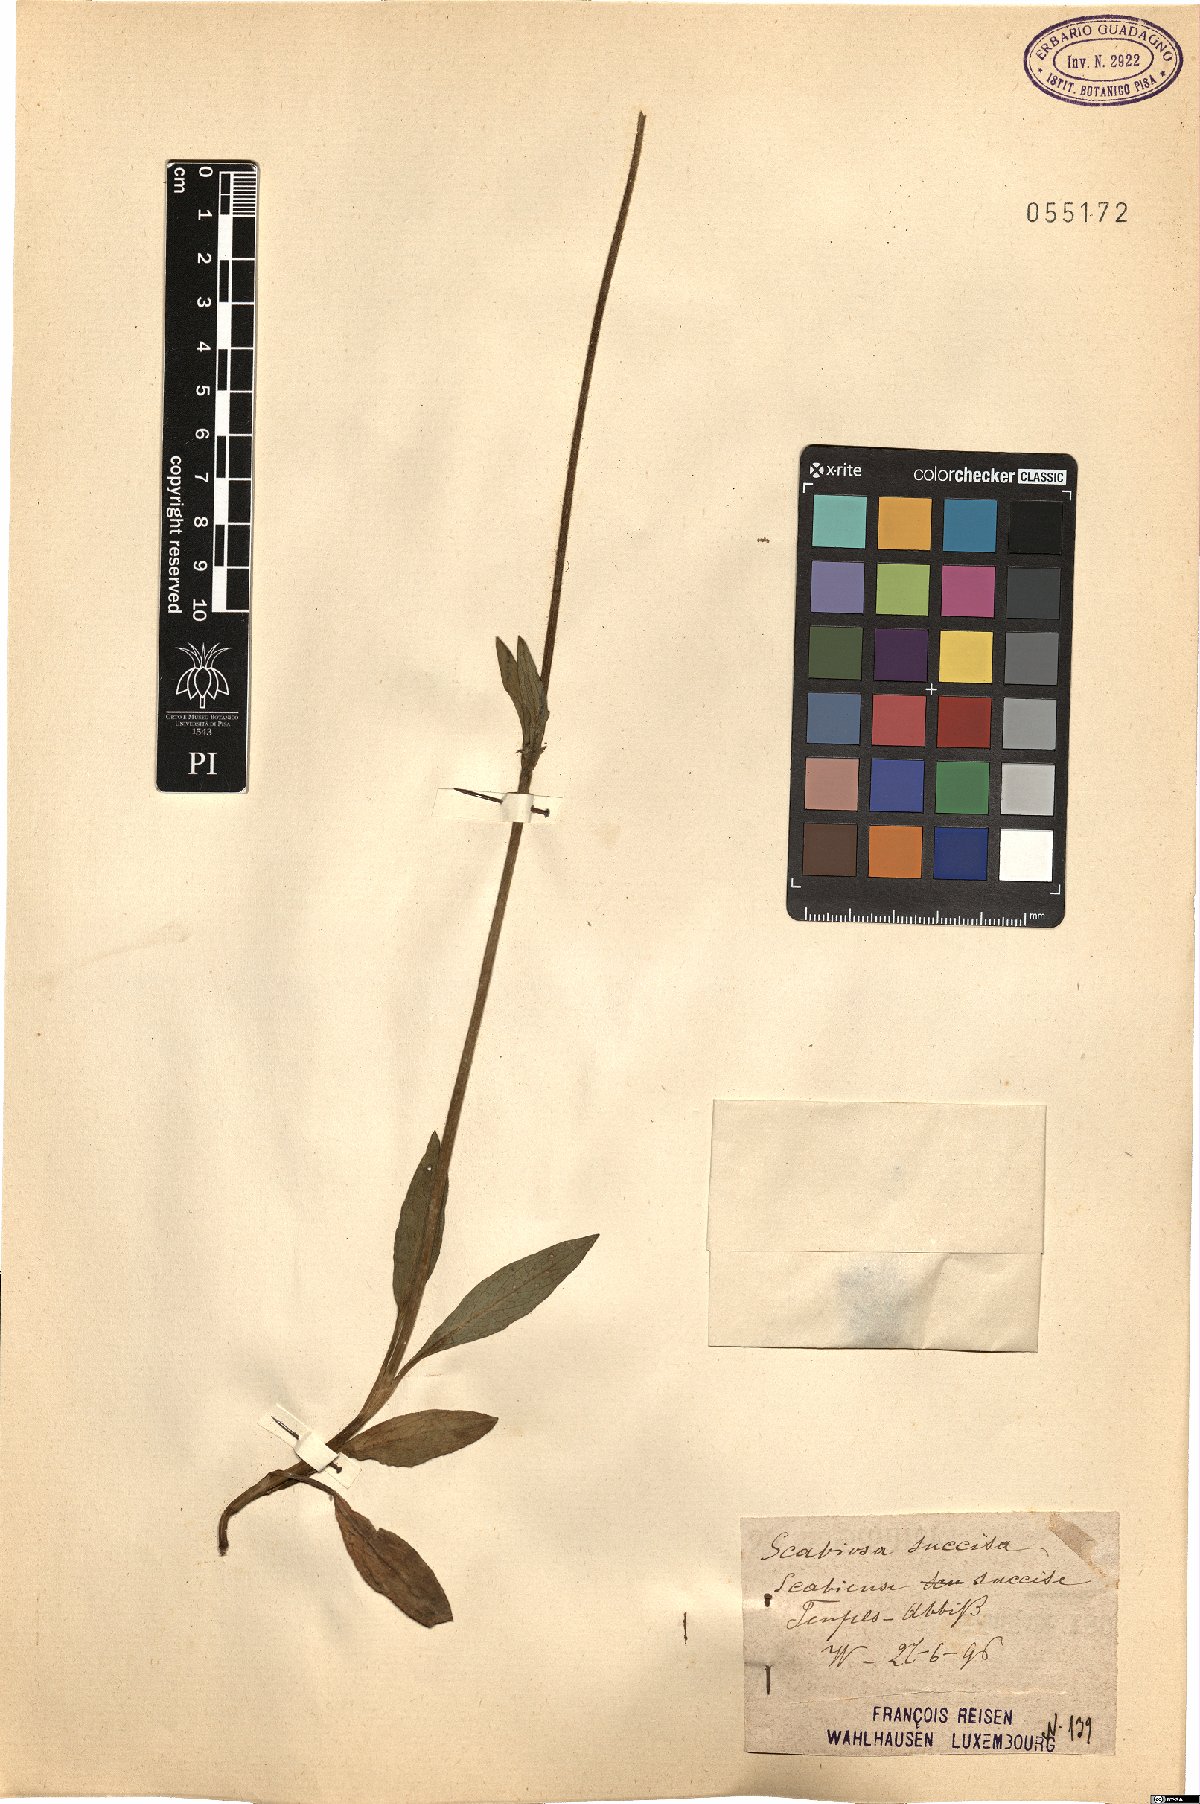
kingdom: Plantae
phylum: Tracheophyta
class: Magnoliopsida
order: Dipsacales
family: Caprifoliaceae
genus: Succisa
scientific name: Succisa pratensis
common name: Devil's-bit
